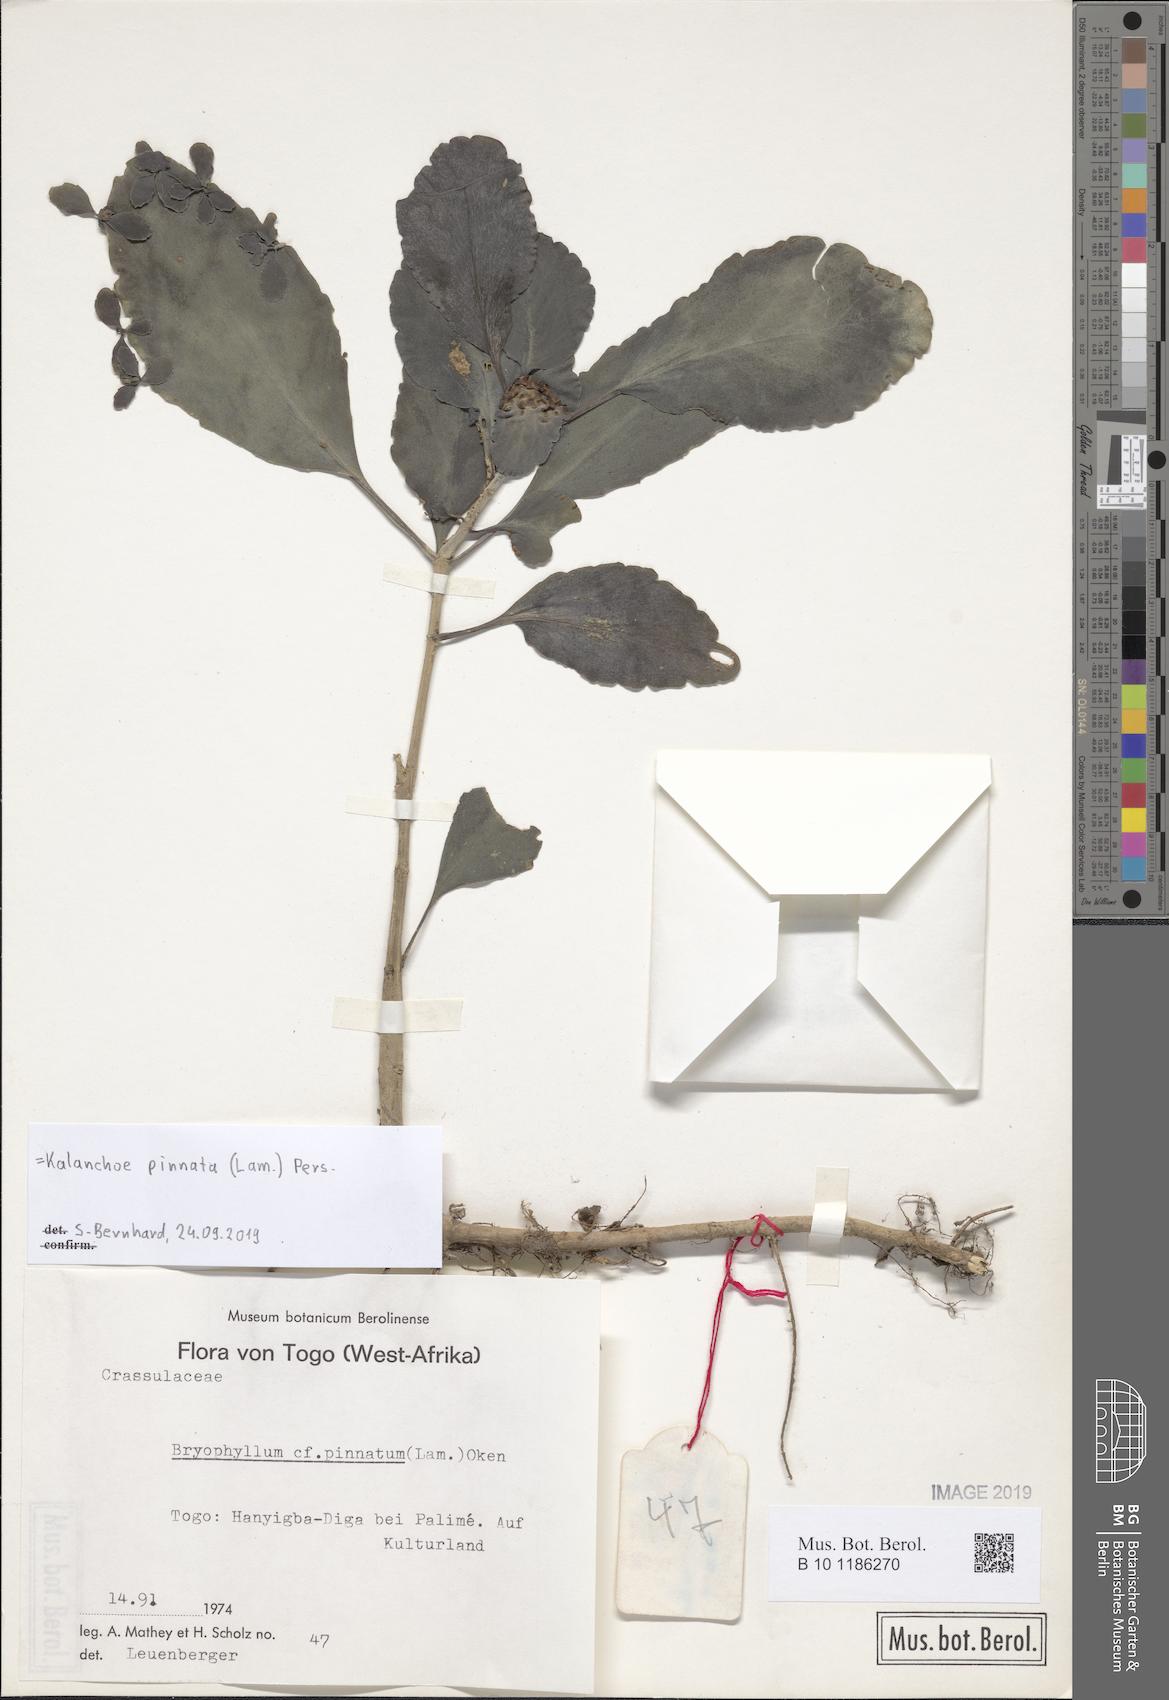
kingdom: Plantae
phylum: Tracheophyta
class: Magnoliopsida
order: Saxifragales
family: Crassulaceae
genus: Kalanchoe
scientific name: Kalanchoe pinnata
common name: Cathedral bells
